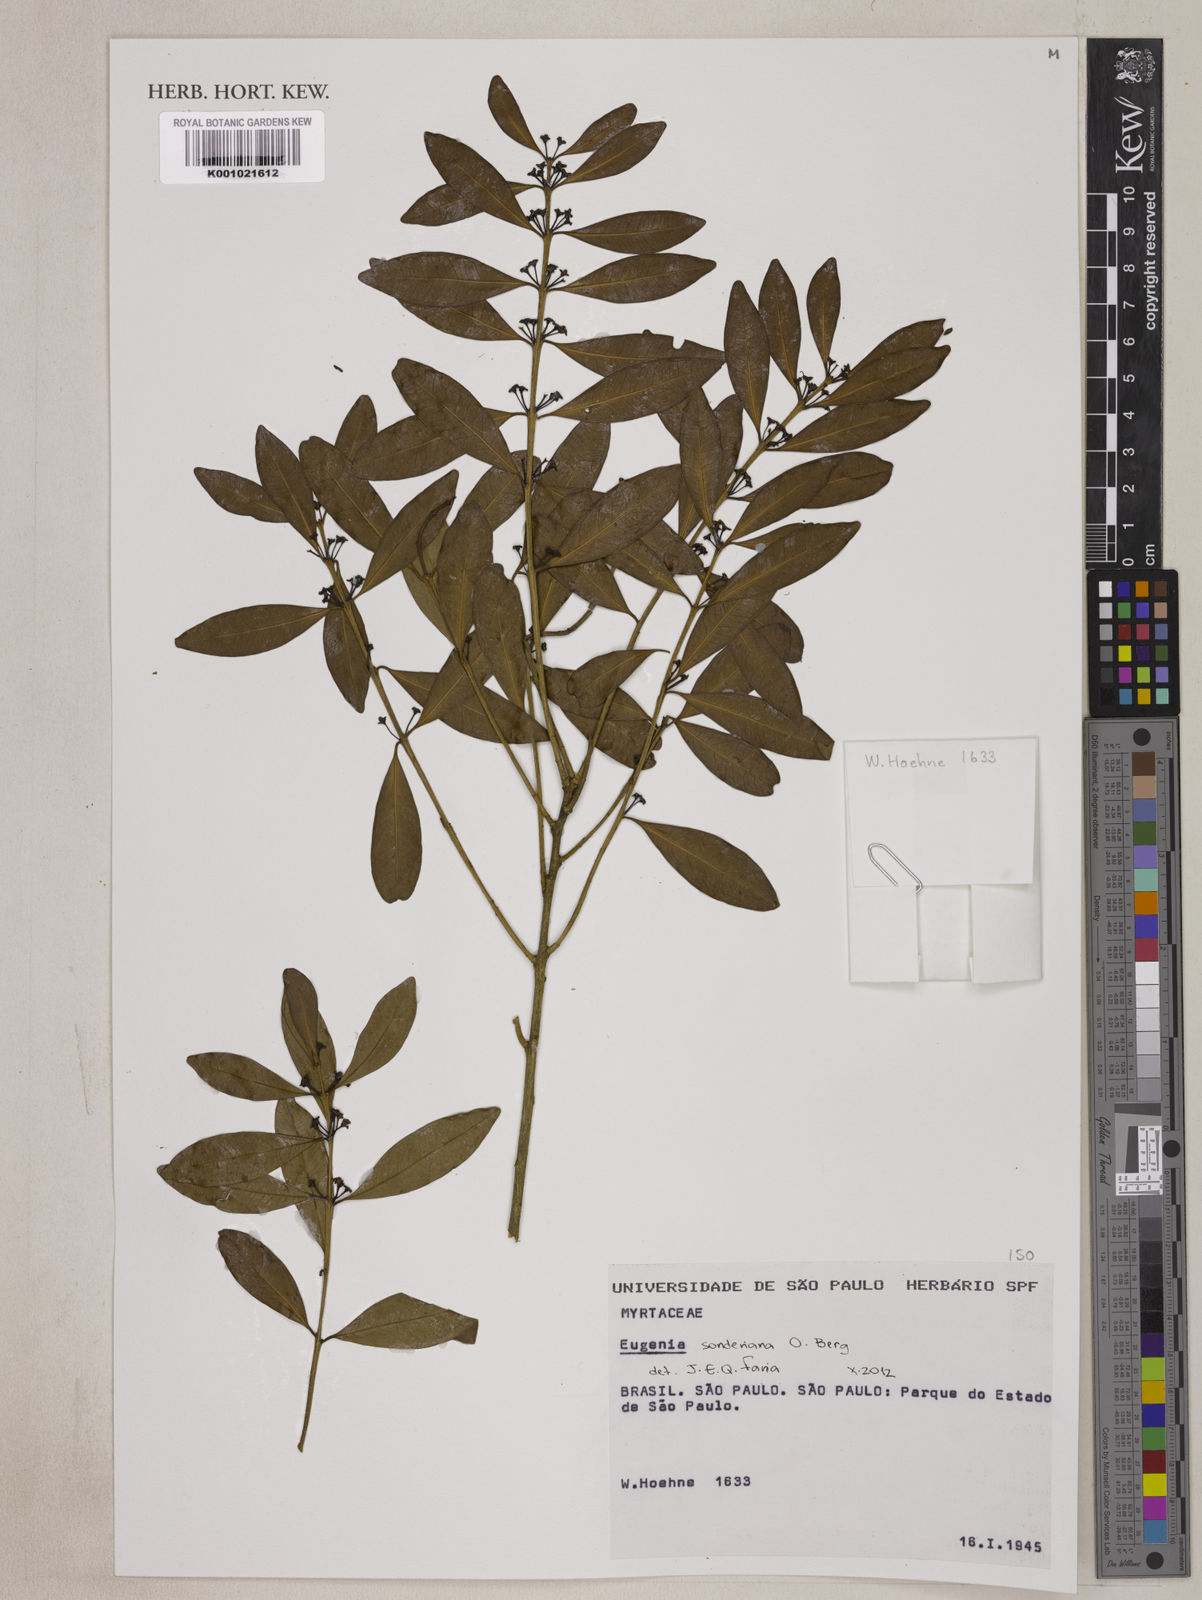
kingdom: Plantae
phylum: Tracheophyta
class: Magnoliopsida
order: Myrtales
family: Myrtaceae
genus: Eugenia
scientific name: Eugenia sonderiana
